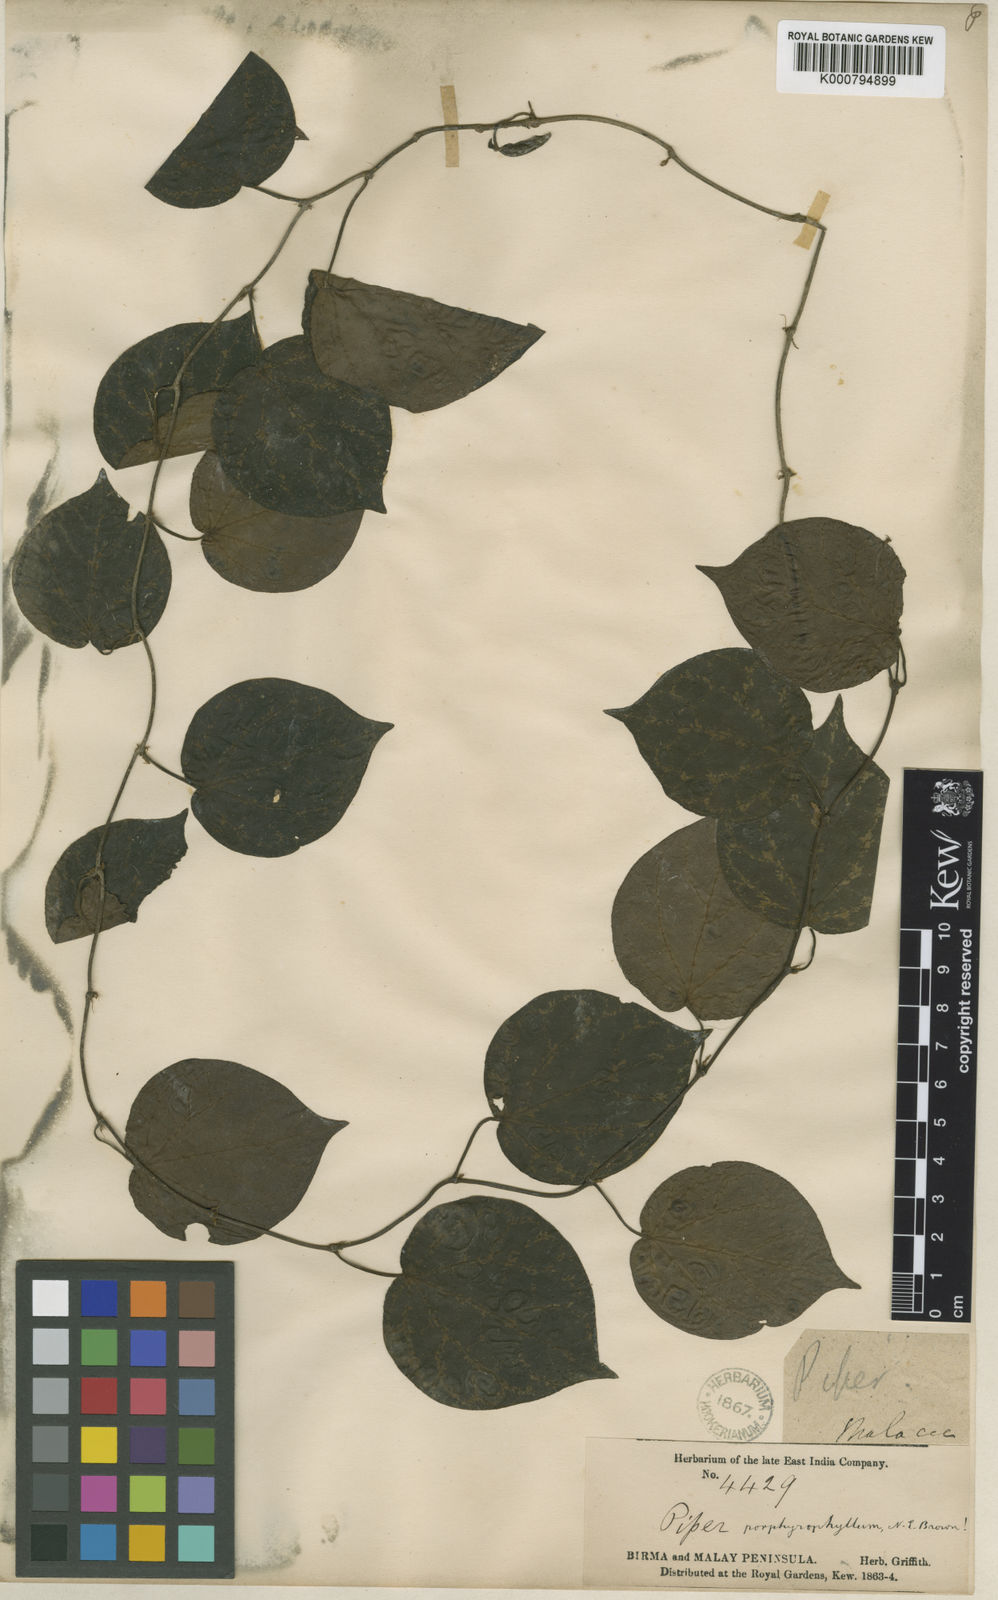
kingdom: Plantae
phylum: Tracheophyta
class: Magnoliopsida
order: Piperales
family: Piperaceae
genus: Piper
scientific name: Piper porphyrophyllum
